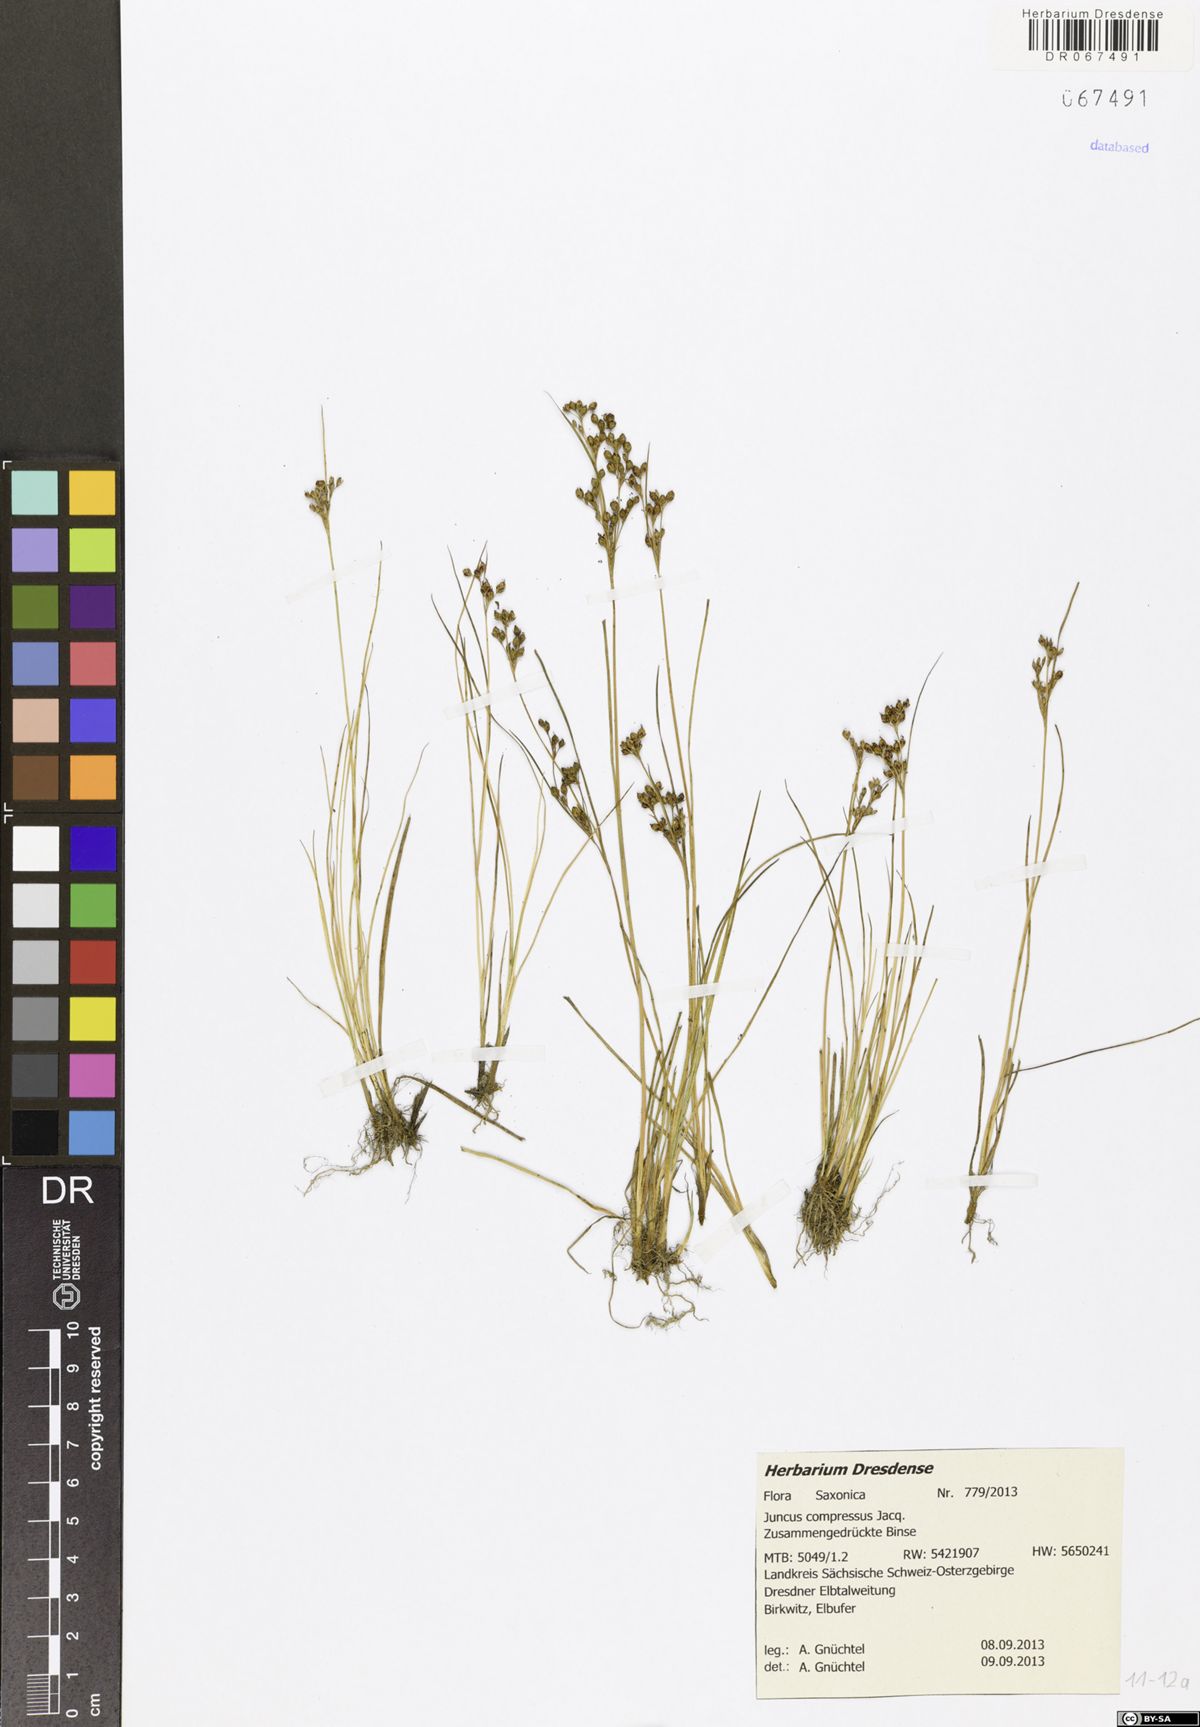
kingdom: Plantae
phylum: Tracheophyta
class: Liliopsida
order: Poales
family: Juncaceae
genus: Juncus
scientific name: Juncus compressus
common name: Round-fruited rush
